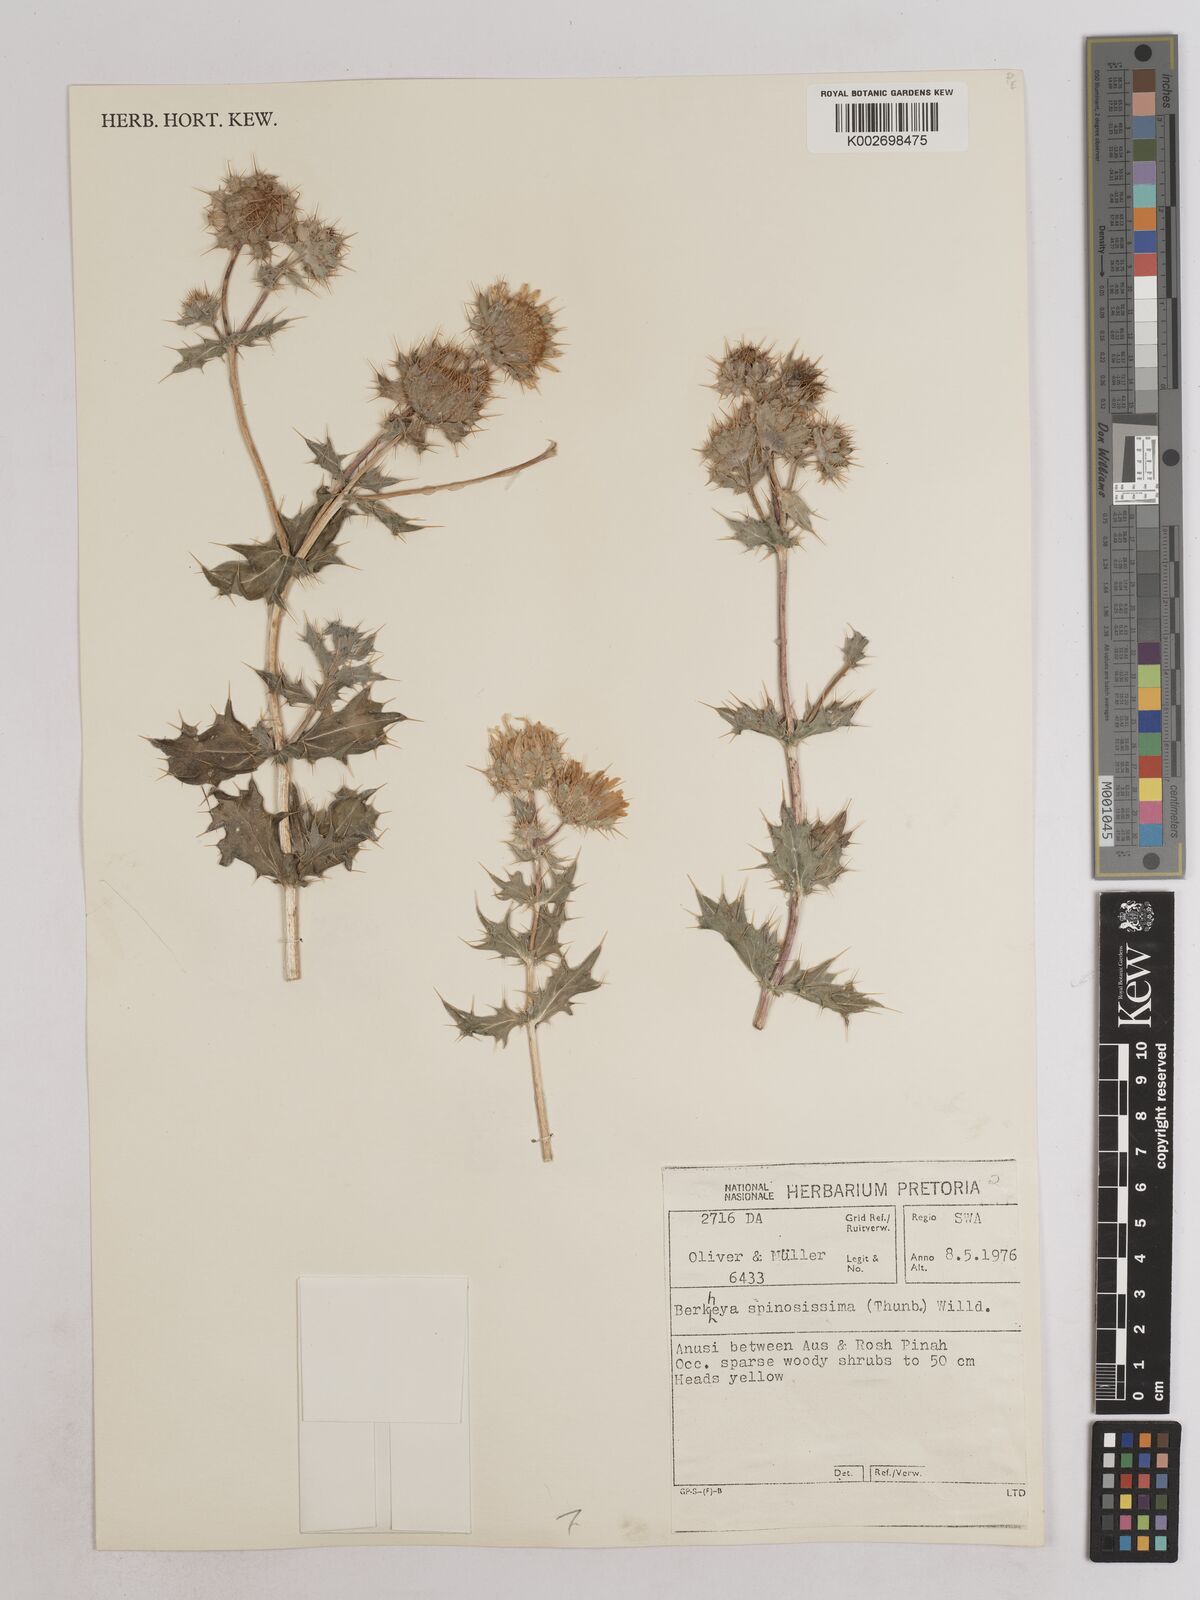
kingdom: Plantae
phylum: Tracheophyta
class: Magnoliopsida
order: Asterales
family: Asteraceae
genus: Berkheya
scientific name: Berkheya spinosissima
